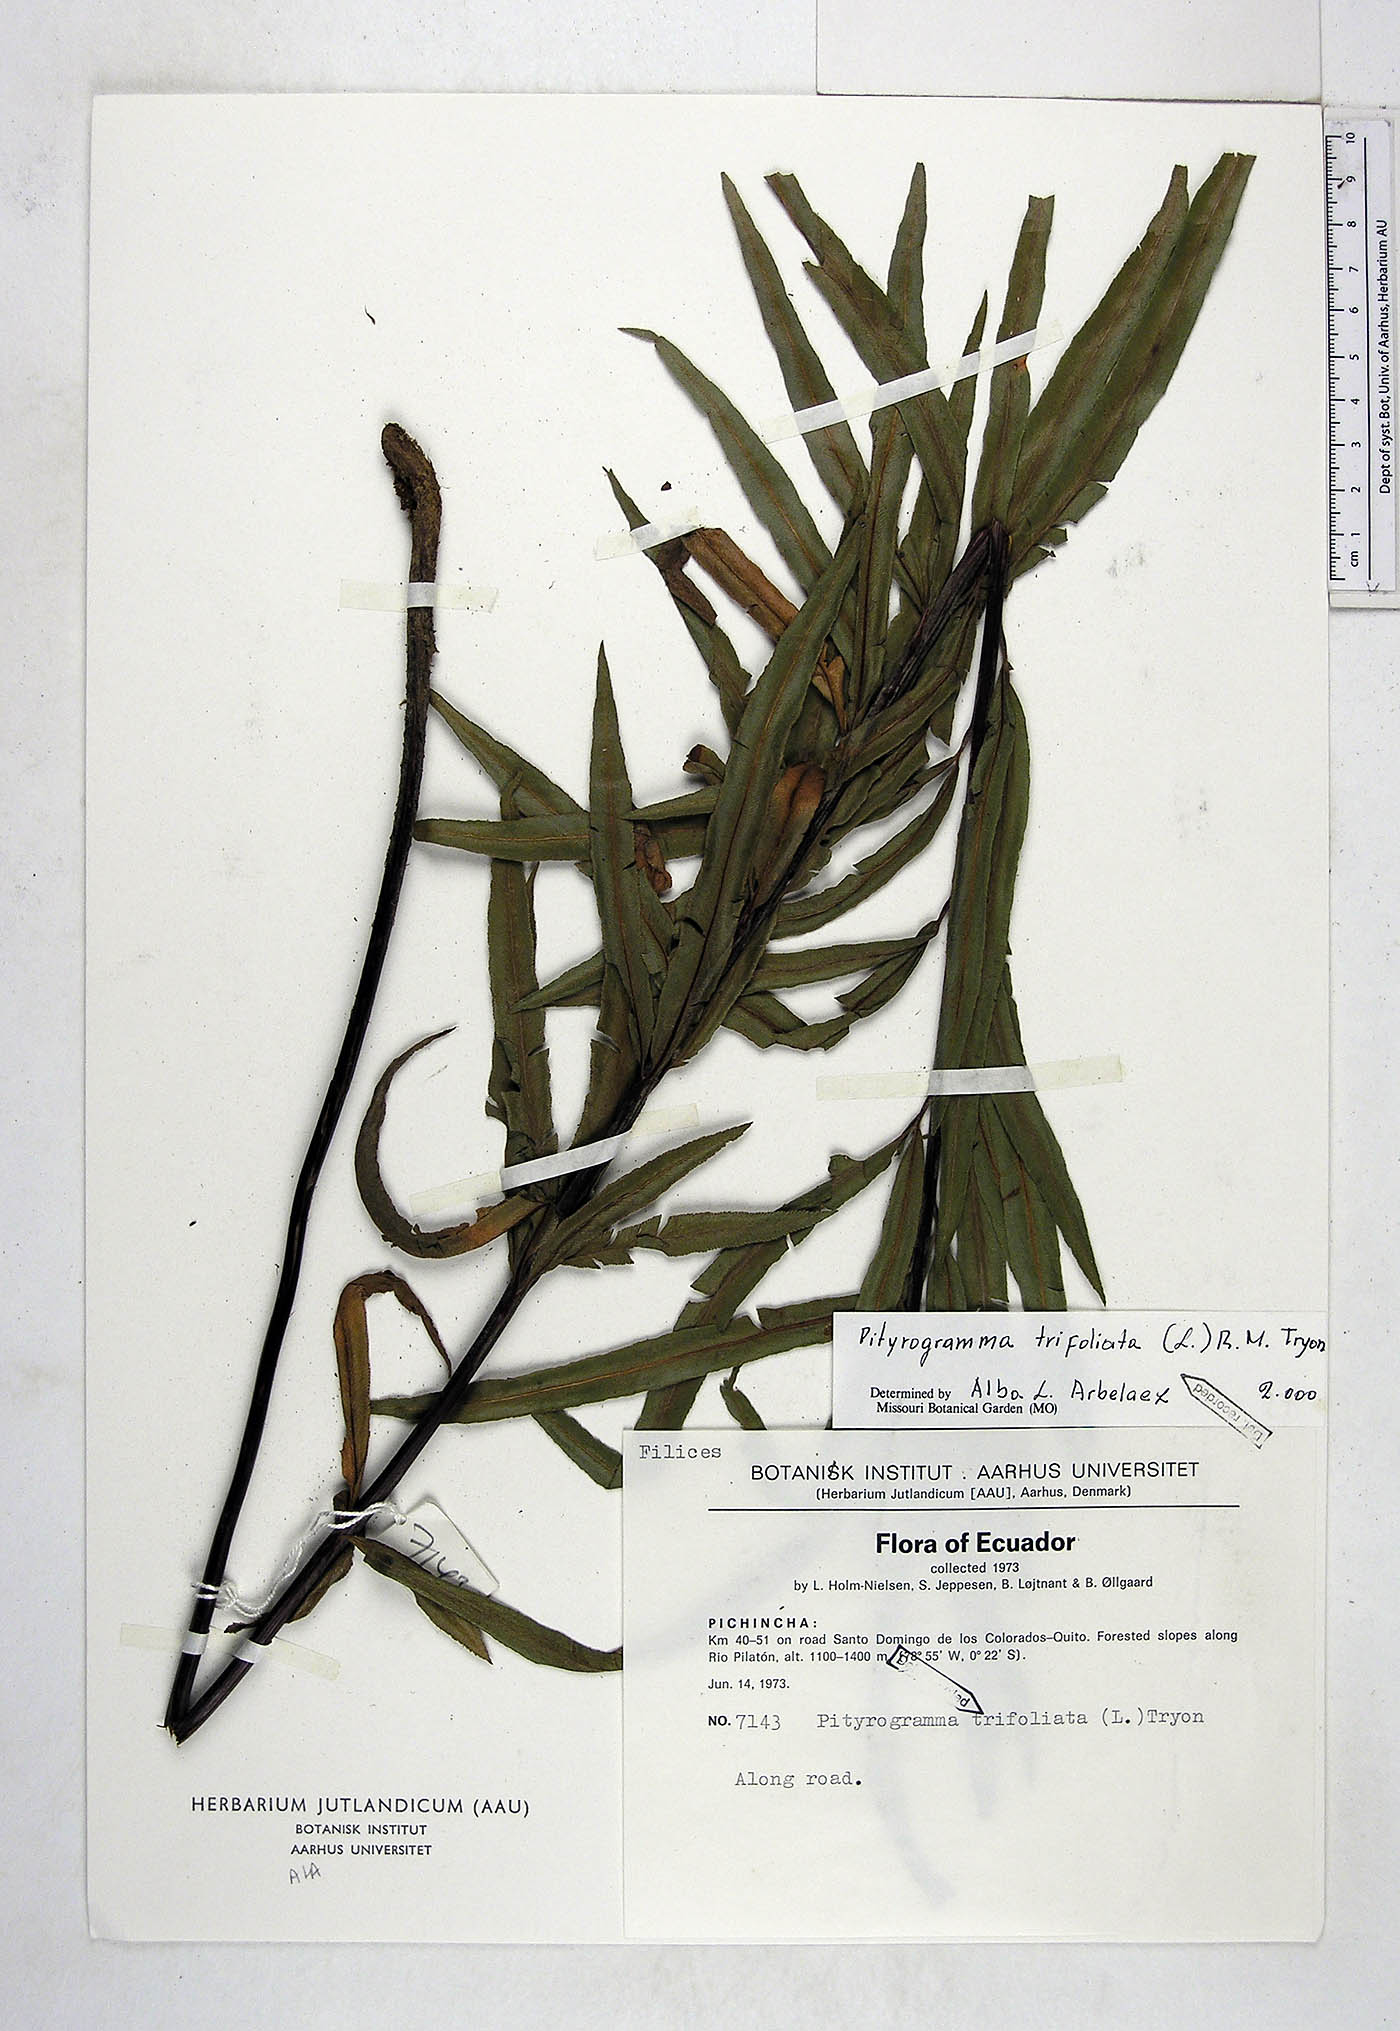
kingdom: Plantae
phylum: Tracheophyta
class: Polypodiopsida
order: Polypodiales
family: Pteridaceae
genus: Pityrogramma
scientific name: Pityrogramma trifoliata
